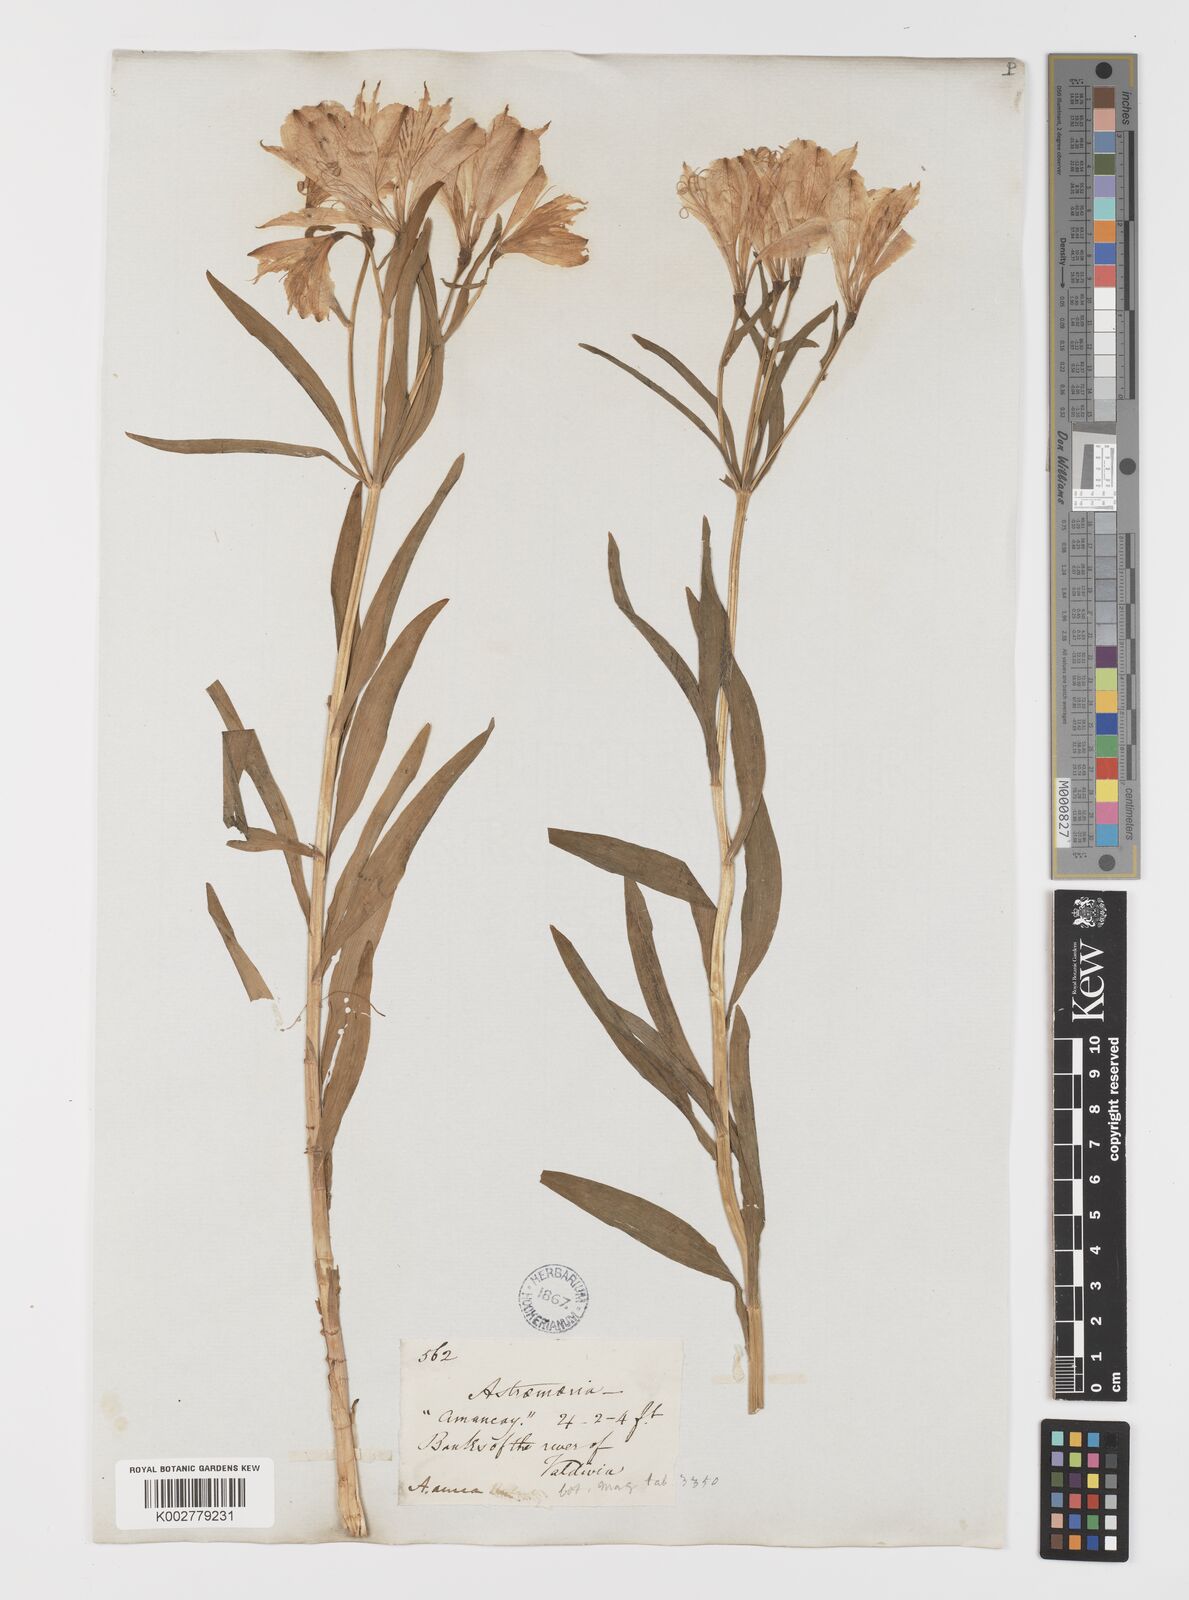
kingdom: Plantae
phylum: Tracheophyta
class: Liliopsida
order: Liliales
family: Alstroemeriaceae
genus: Alstroemeria
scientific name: Alstroemeria aurea
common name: Peruvian lily
